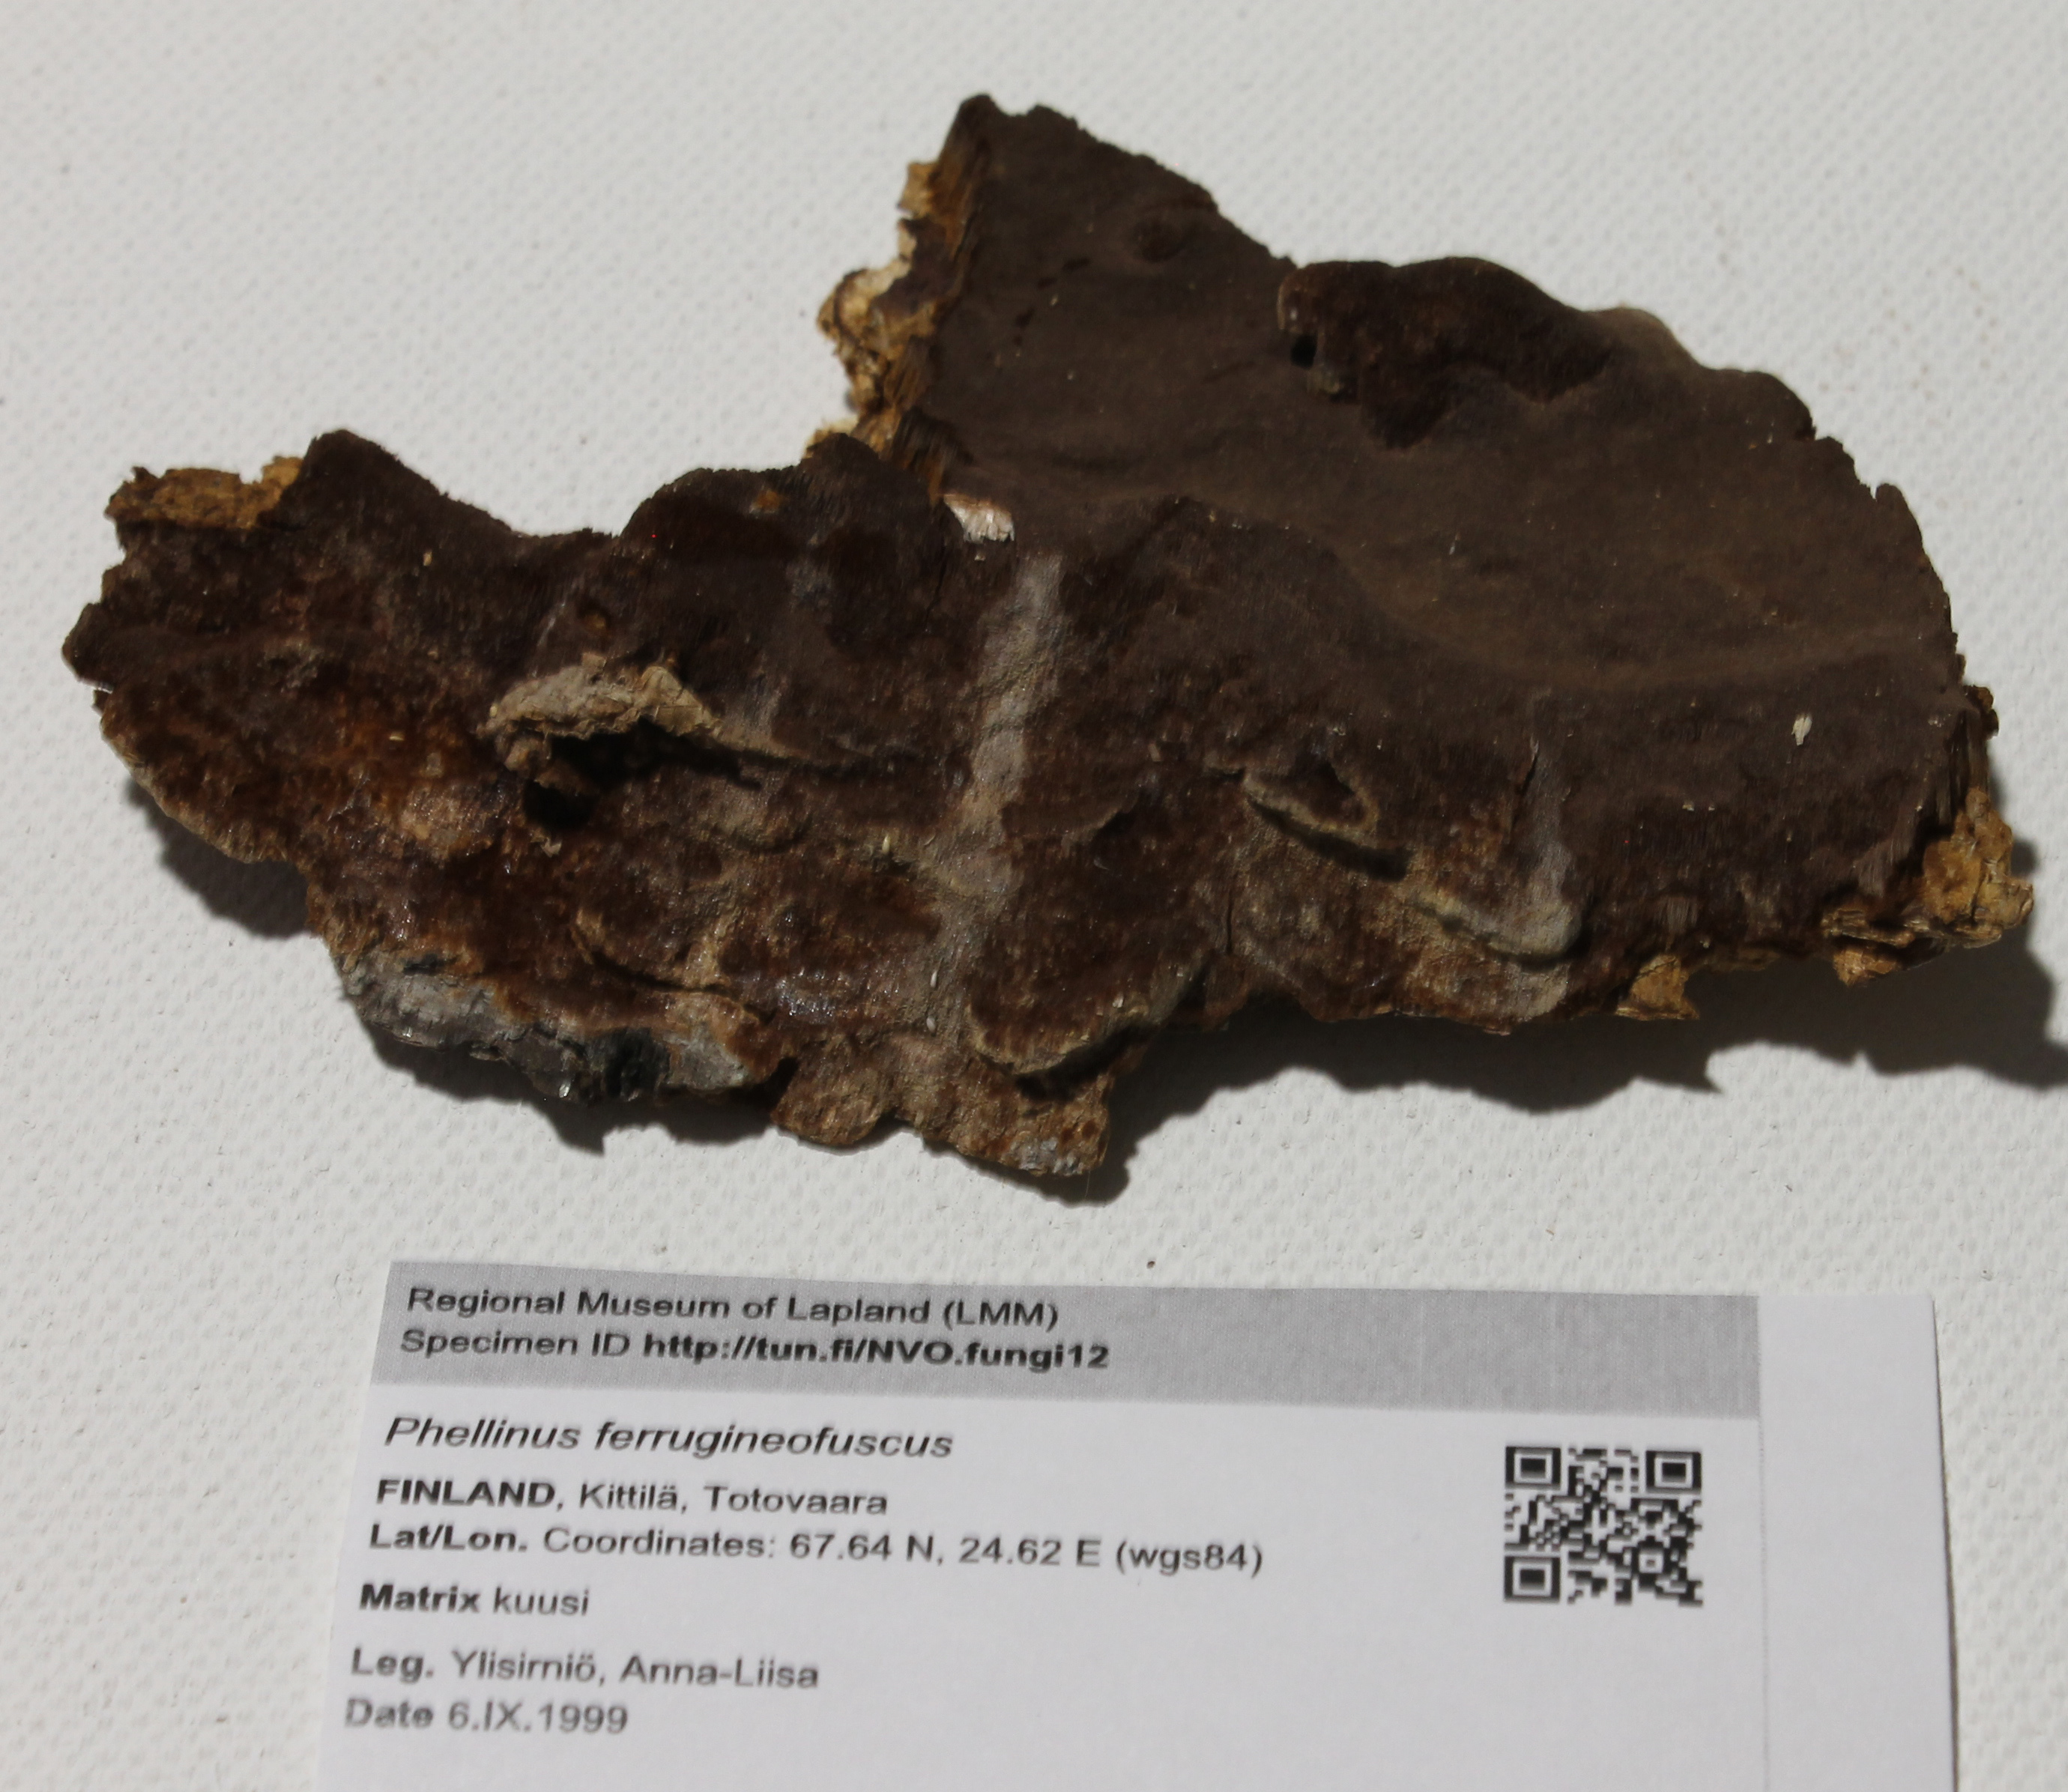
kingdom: Fungi
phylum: Basidiomycota
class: Agaricomycetes
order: Hymenochaetales
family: Hymenochaetaceae
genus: Phellinidium
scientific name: Phellinidium ferrugineofuscum
